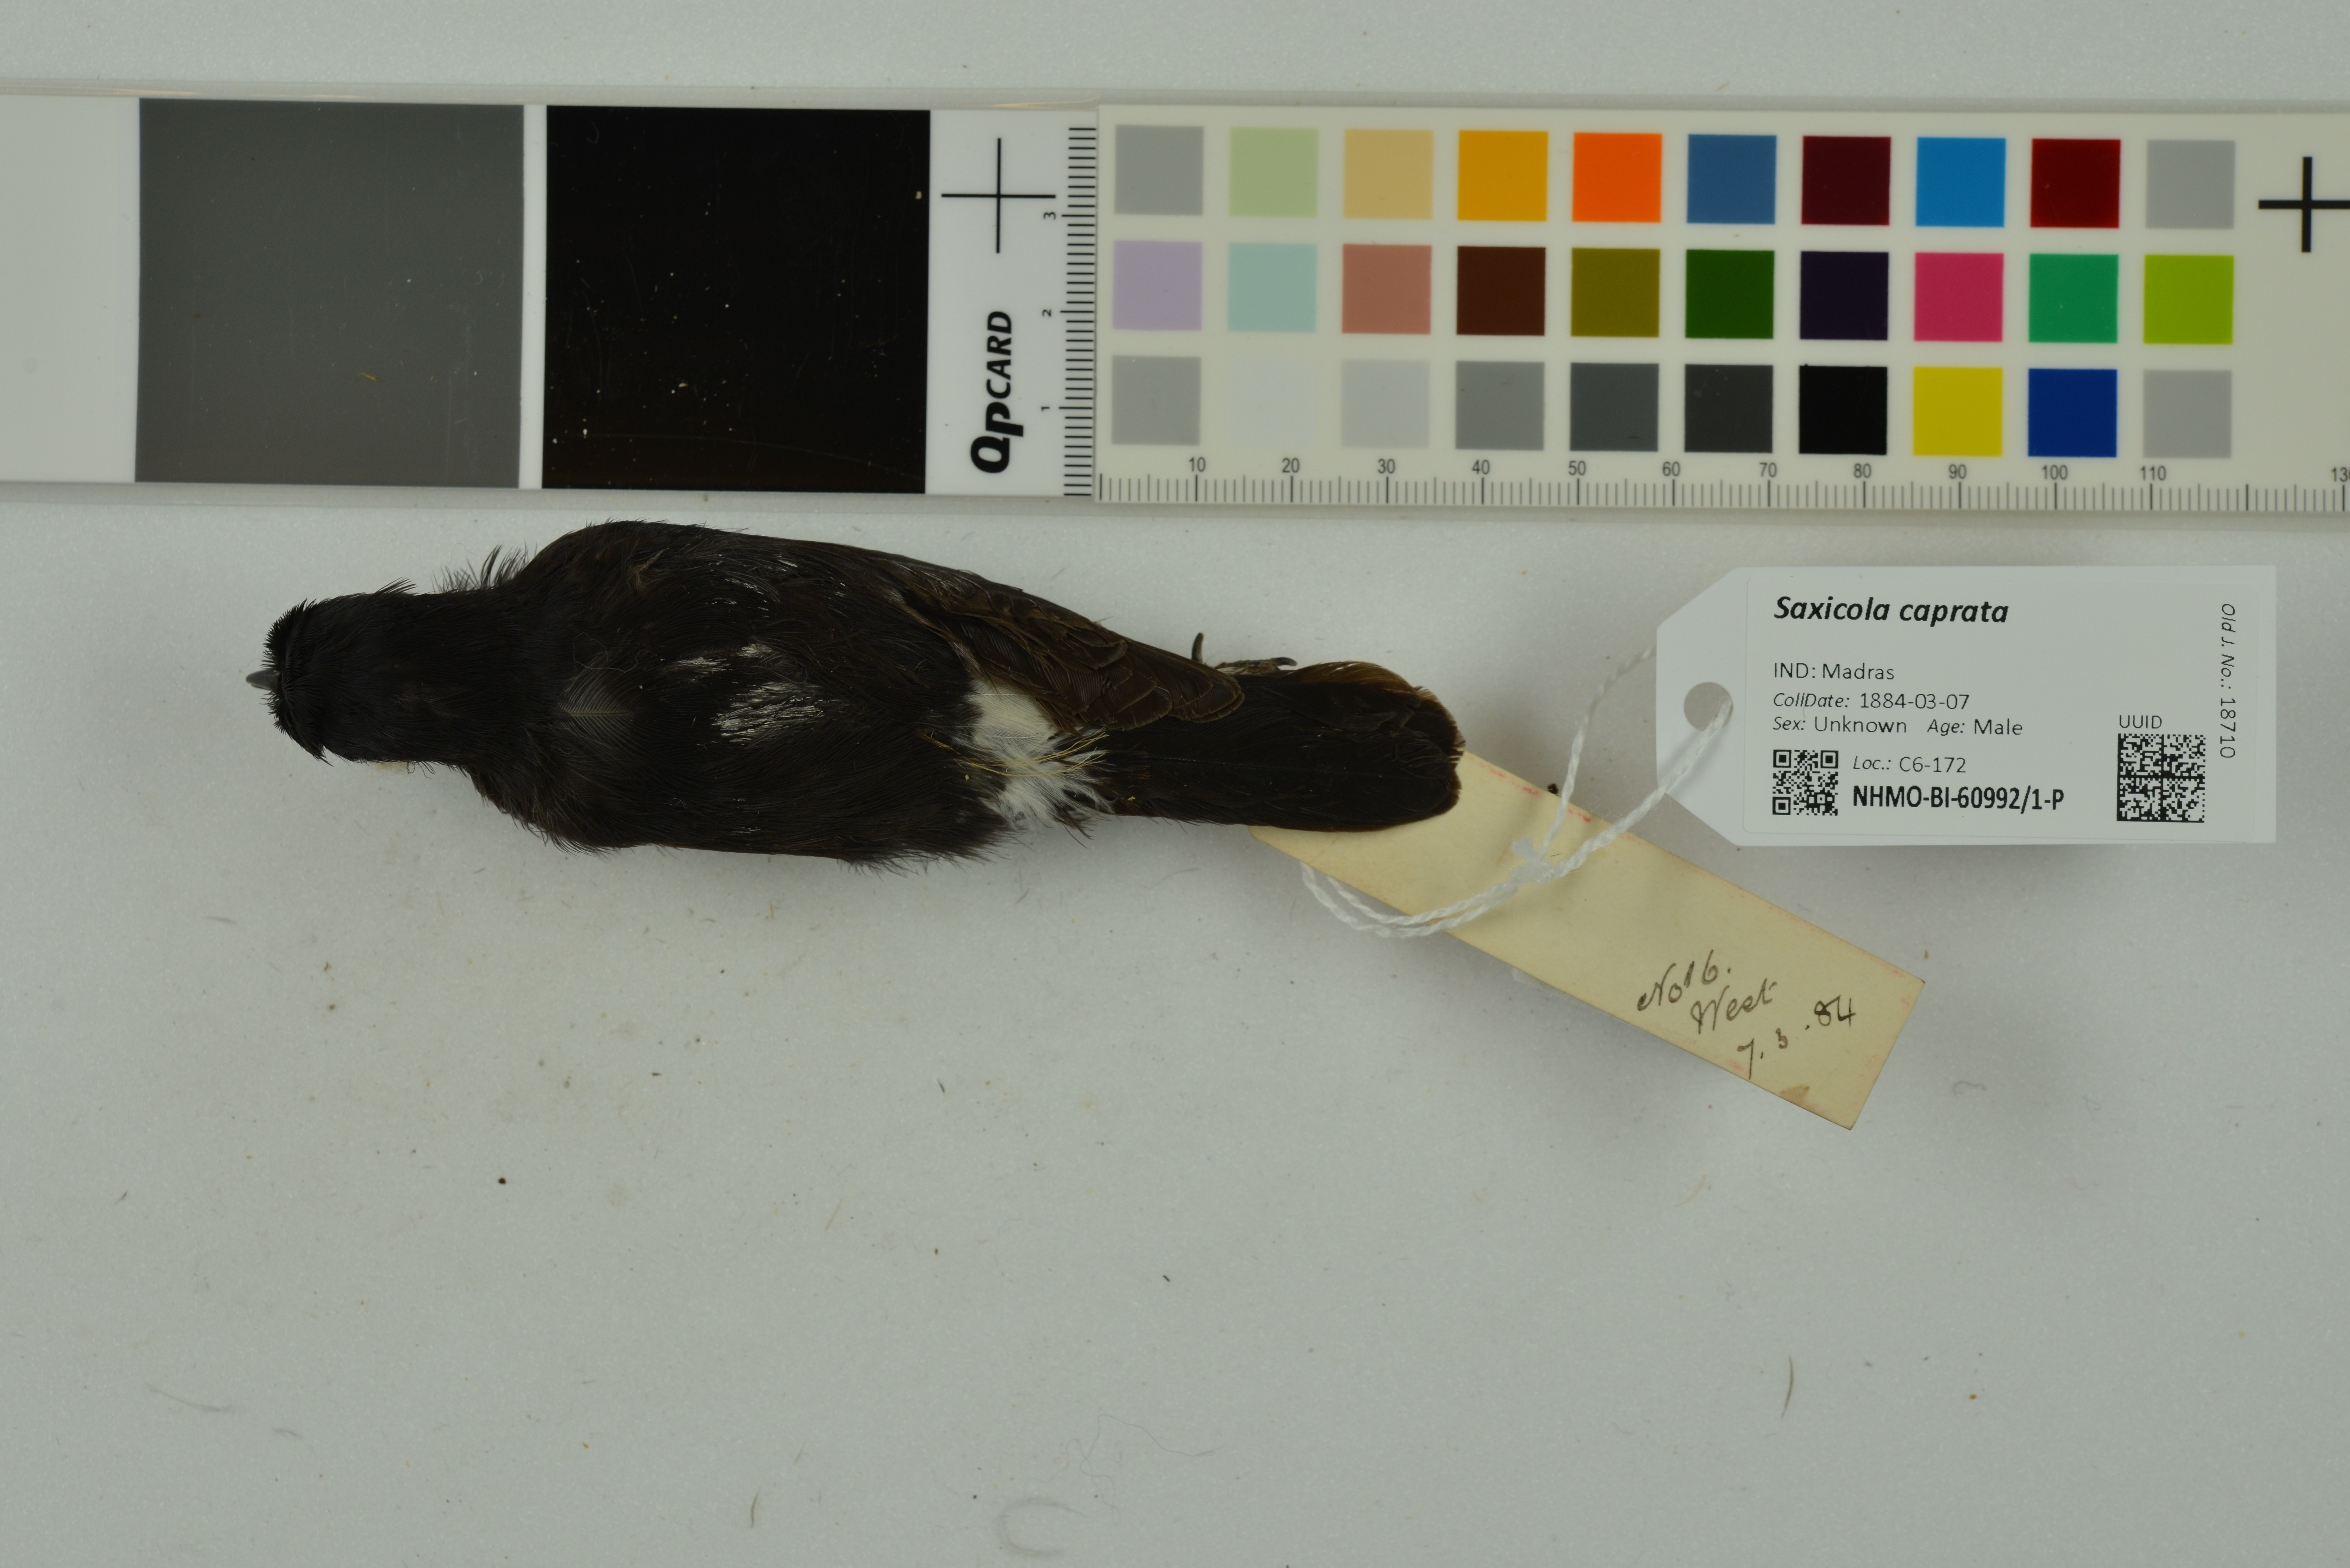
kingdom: Animalia
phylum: Chordata
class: Aves
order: Passeriformes
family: Muscicapidae
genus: Saxicola
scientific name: Saxicola caprata
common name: Pied bush chat
